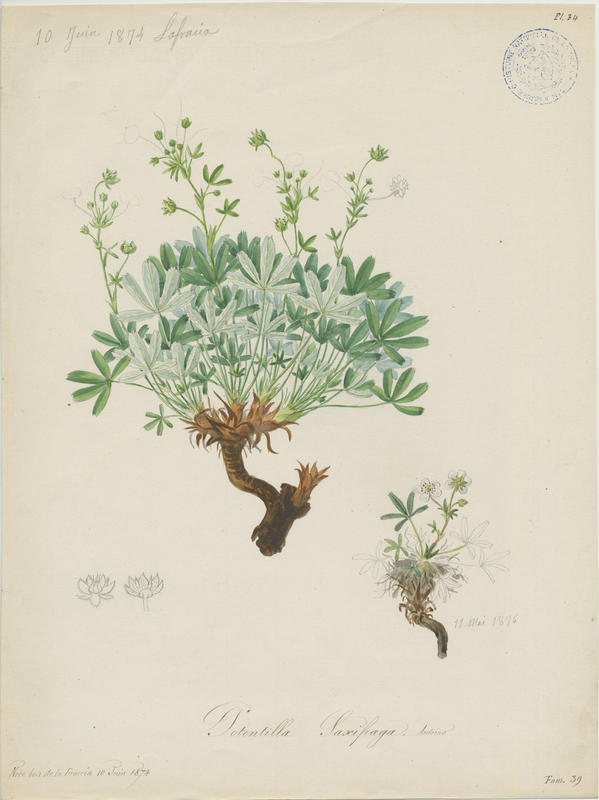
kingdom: Plantae
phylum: Tracheophyta
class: Magnoliopsida
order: Rosales
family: Rosaceae
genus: Potentilla
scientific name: Potentilla saxifraga
